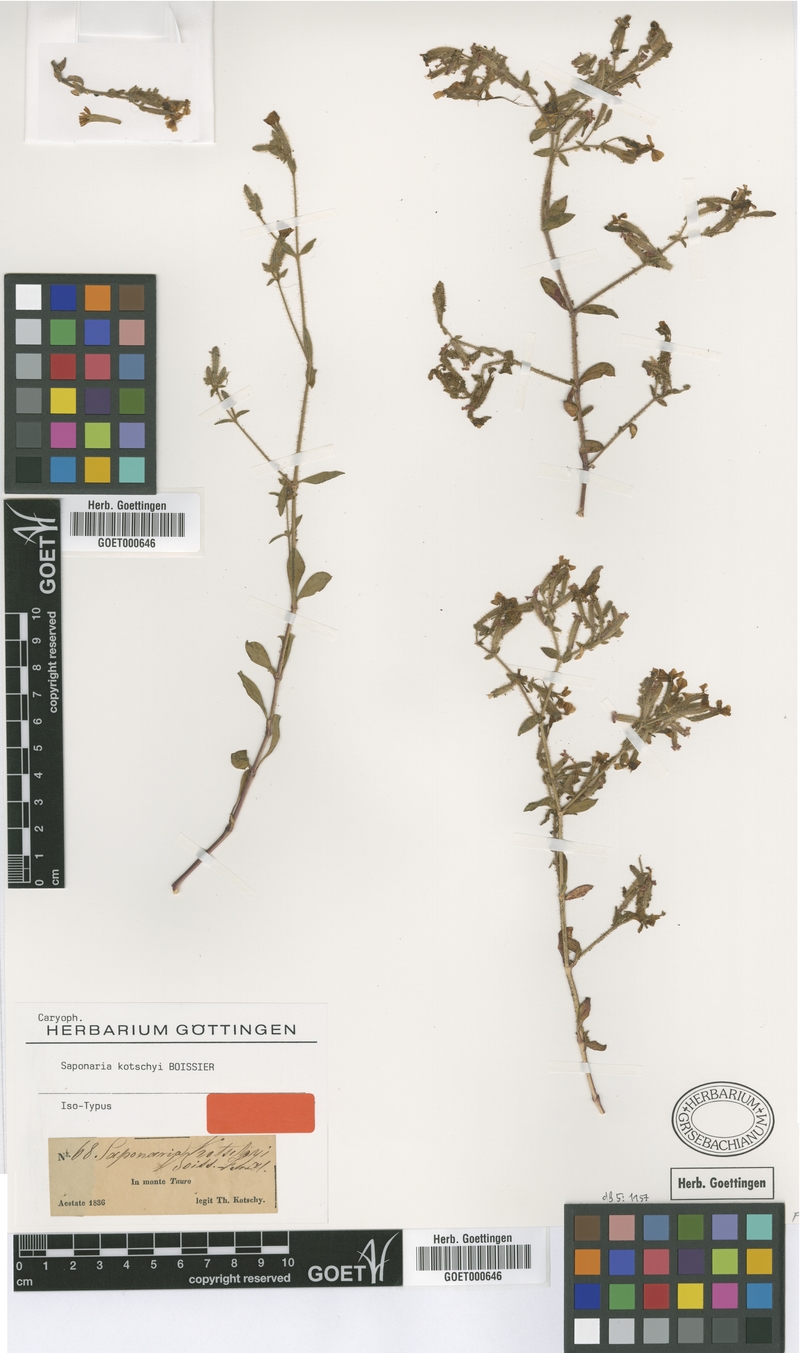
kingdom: Plantae
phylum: Tracheophyta
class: Magnoliopsida
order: Caryophyllales
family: Caryophyllaceae
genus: Saponaria
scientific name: Saponaria kotschyi
